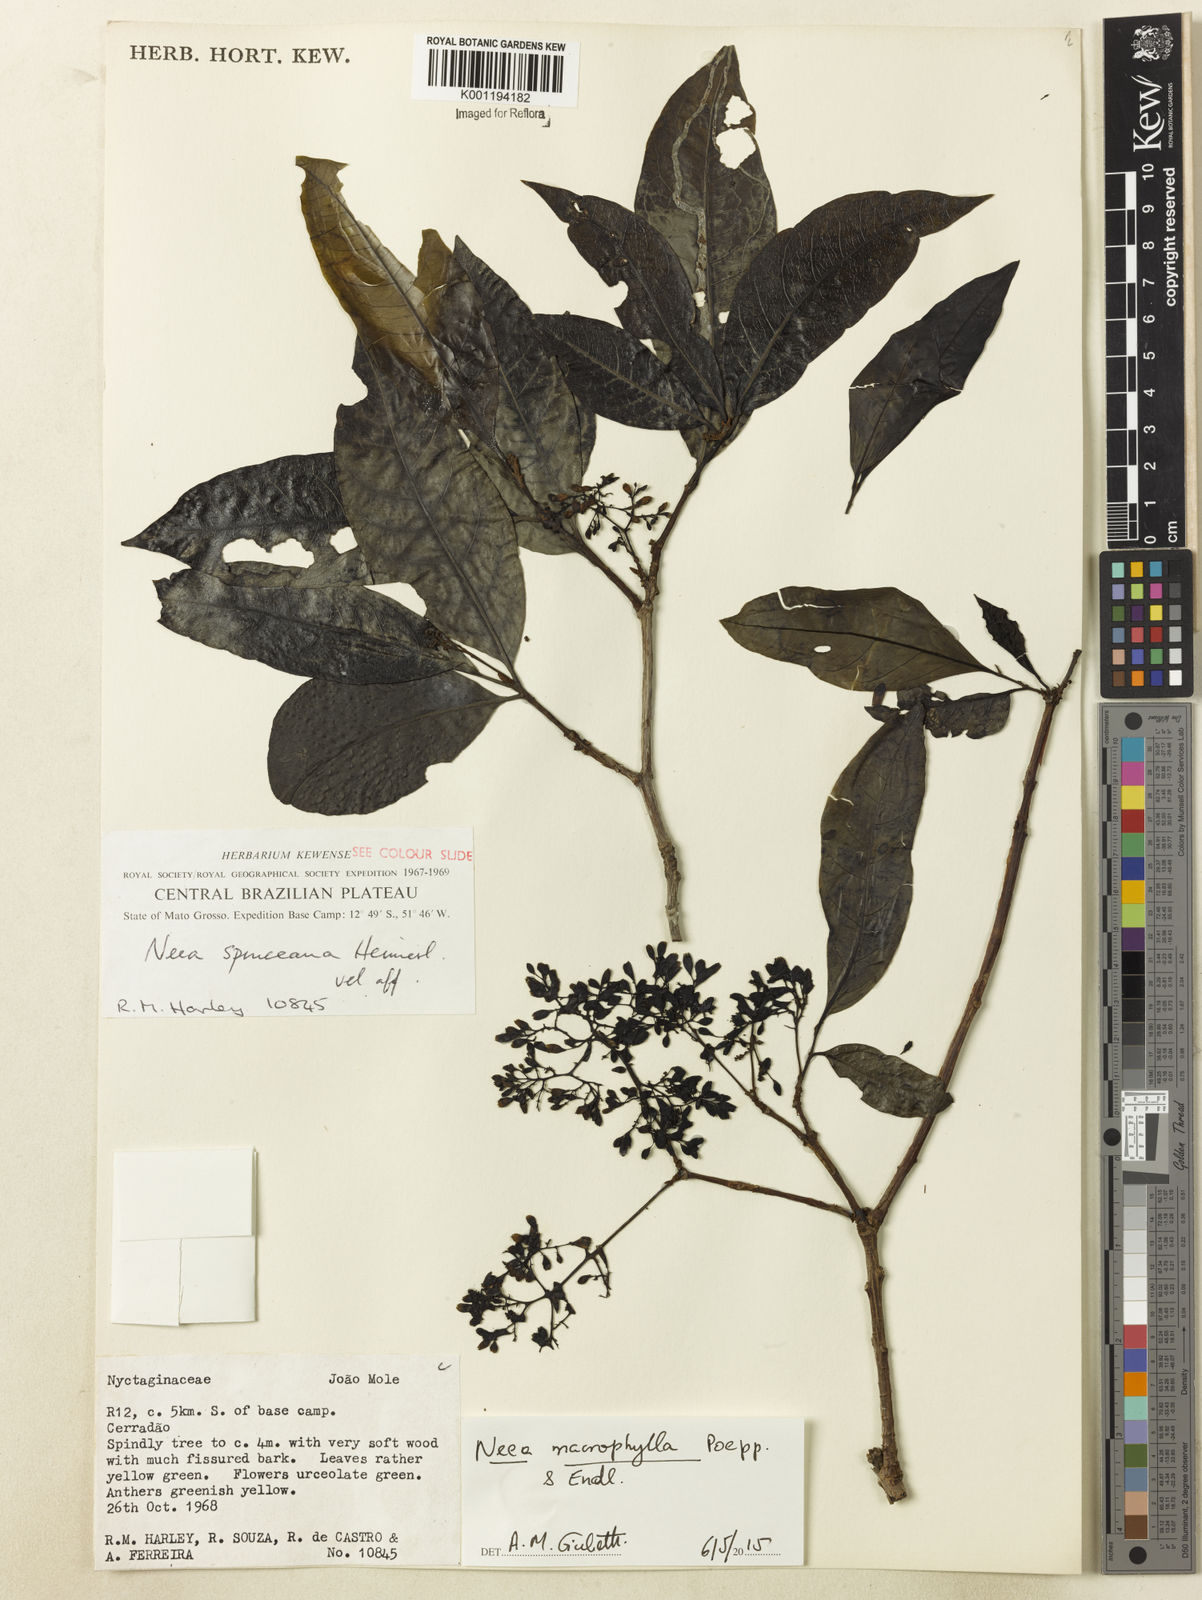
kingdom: Plantae
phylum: Tracheophyta
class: Magnoliopsida
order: Caryophyllales
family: Nyctaginaceae
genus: Neea
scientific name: Neea macrophylla
